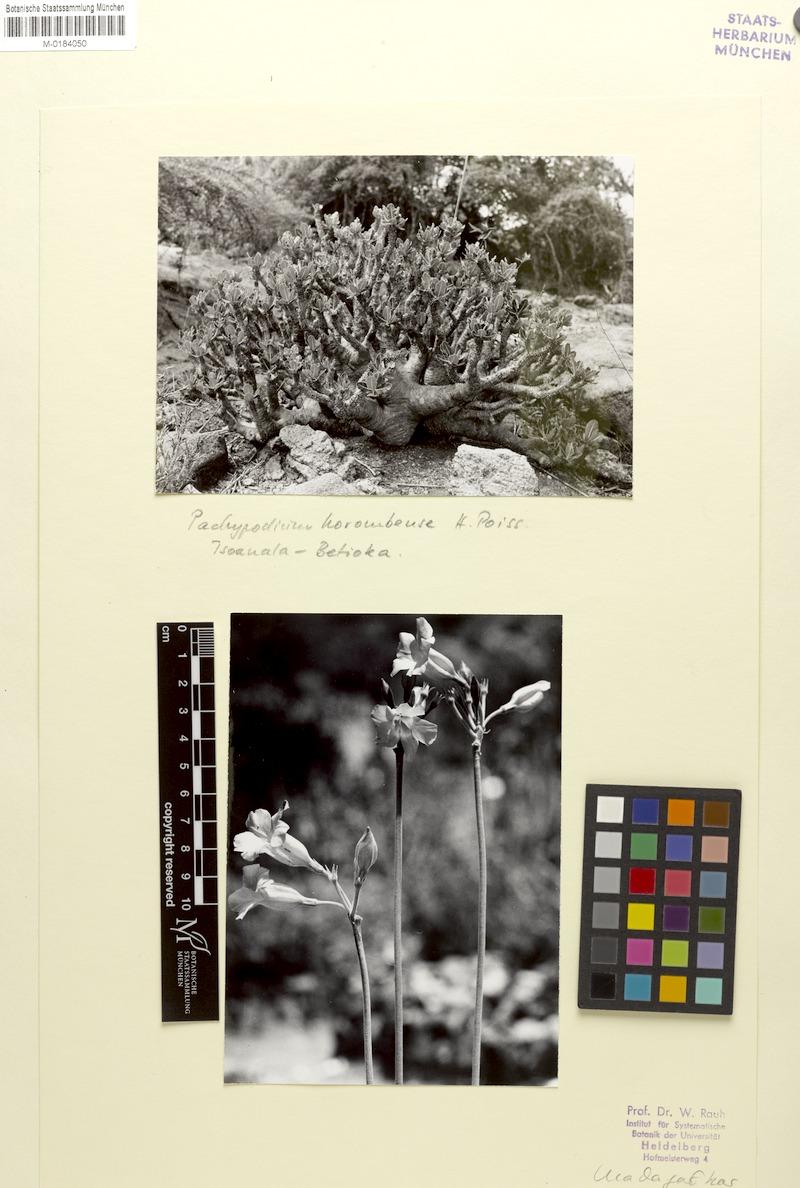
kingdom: Plantae
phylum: Tracheophyta
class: Magnoliopsida
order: Gentianales
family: Apocynaceae
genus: Pachypodium
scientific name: Pachypodium horombense
